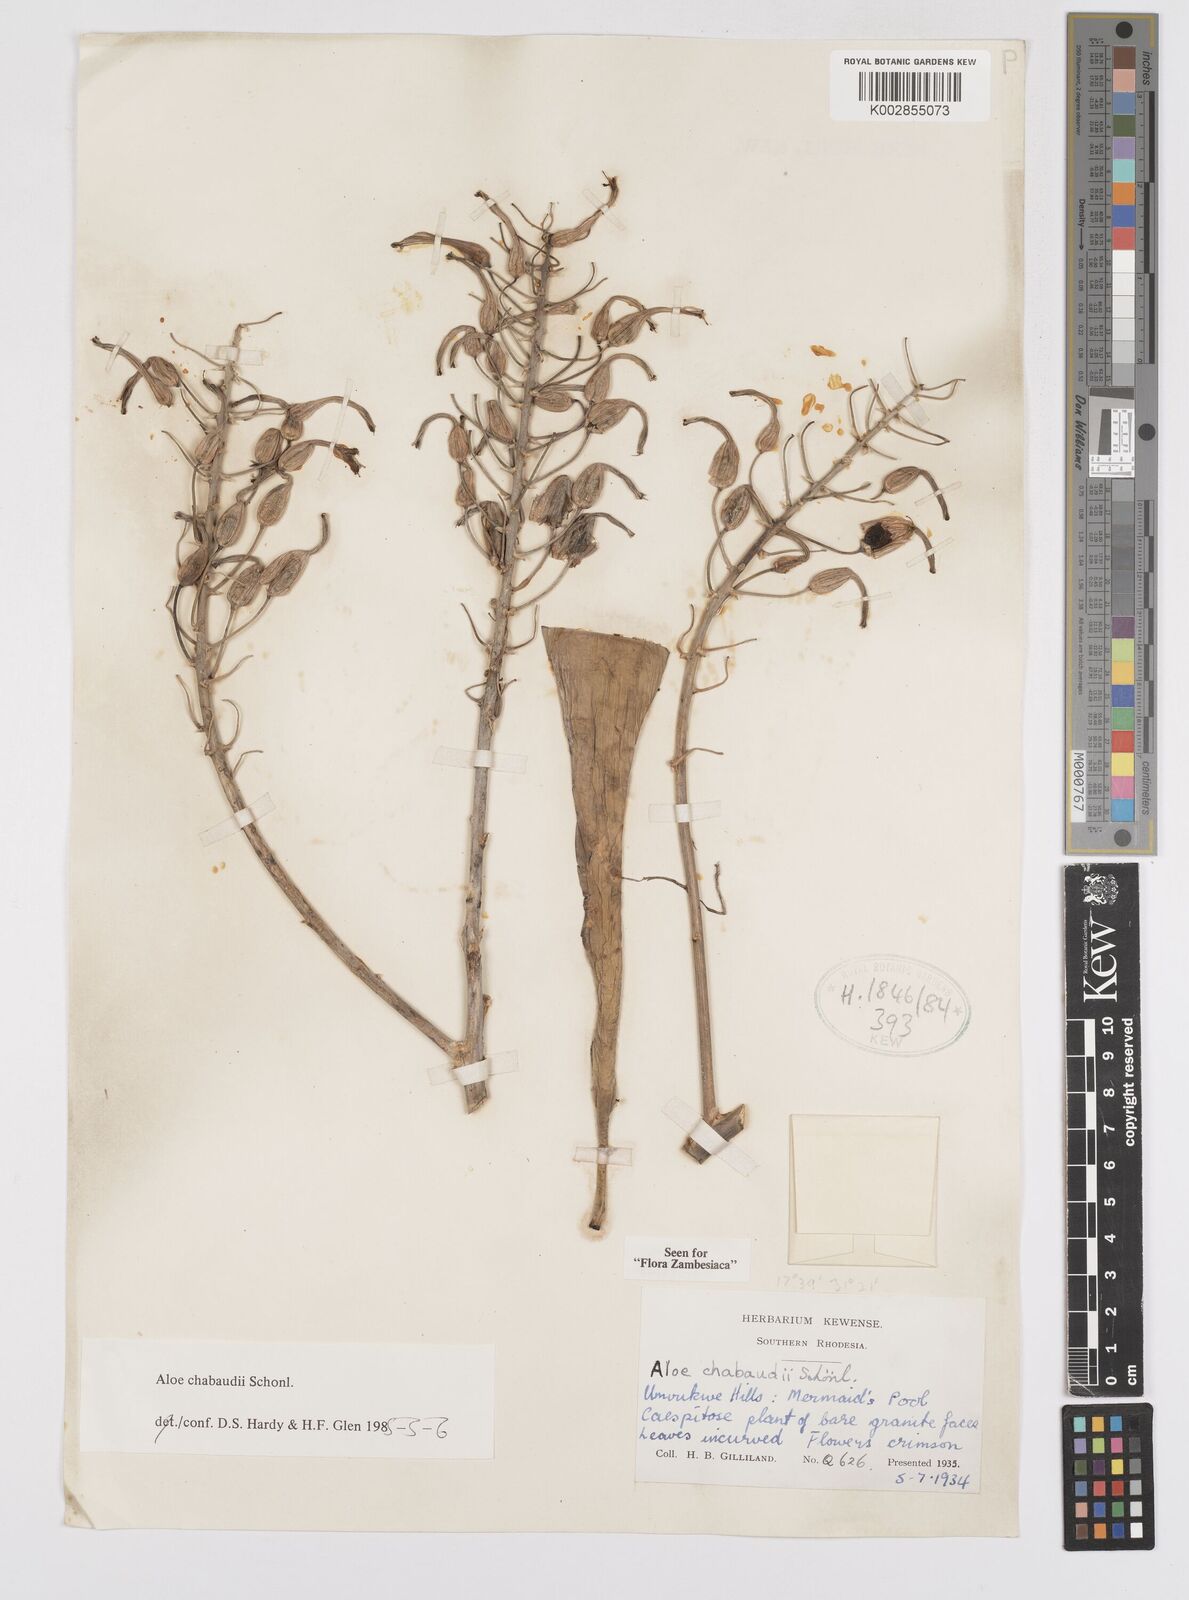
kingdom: Plantae
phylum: Tracheophyta
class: Liliopsida
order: Asparagales
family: Asphodelaceae
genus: Aloe
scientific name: Aloe chabaudii
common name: Chabaud's aloe
